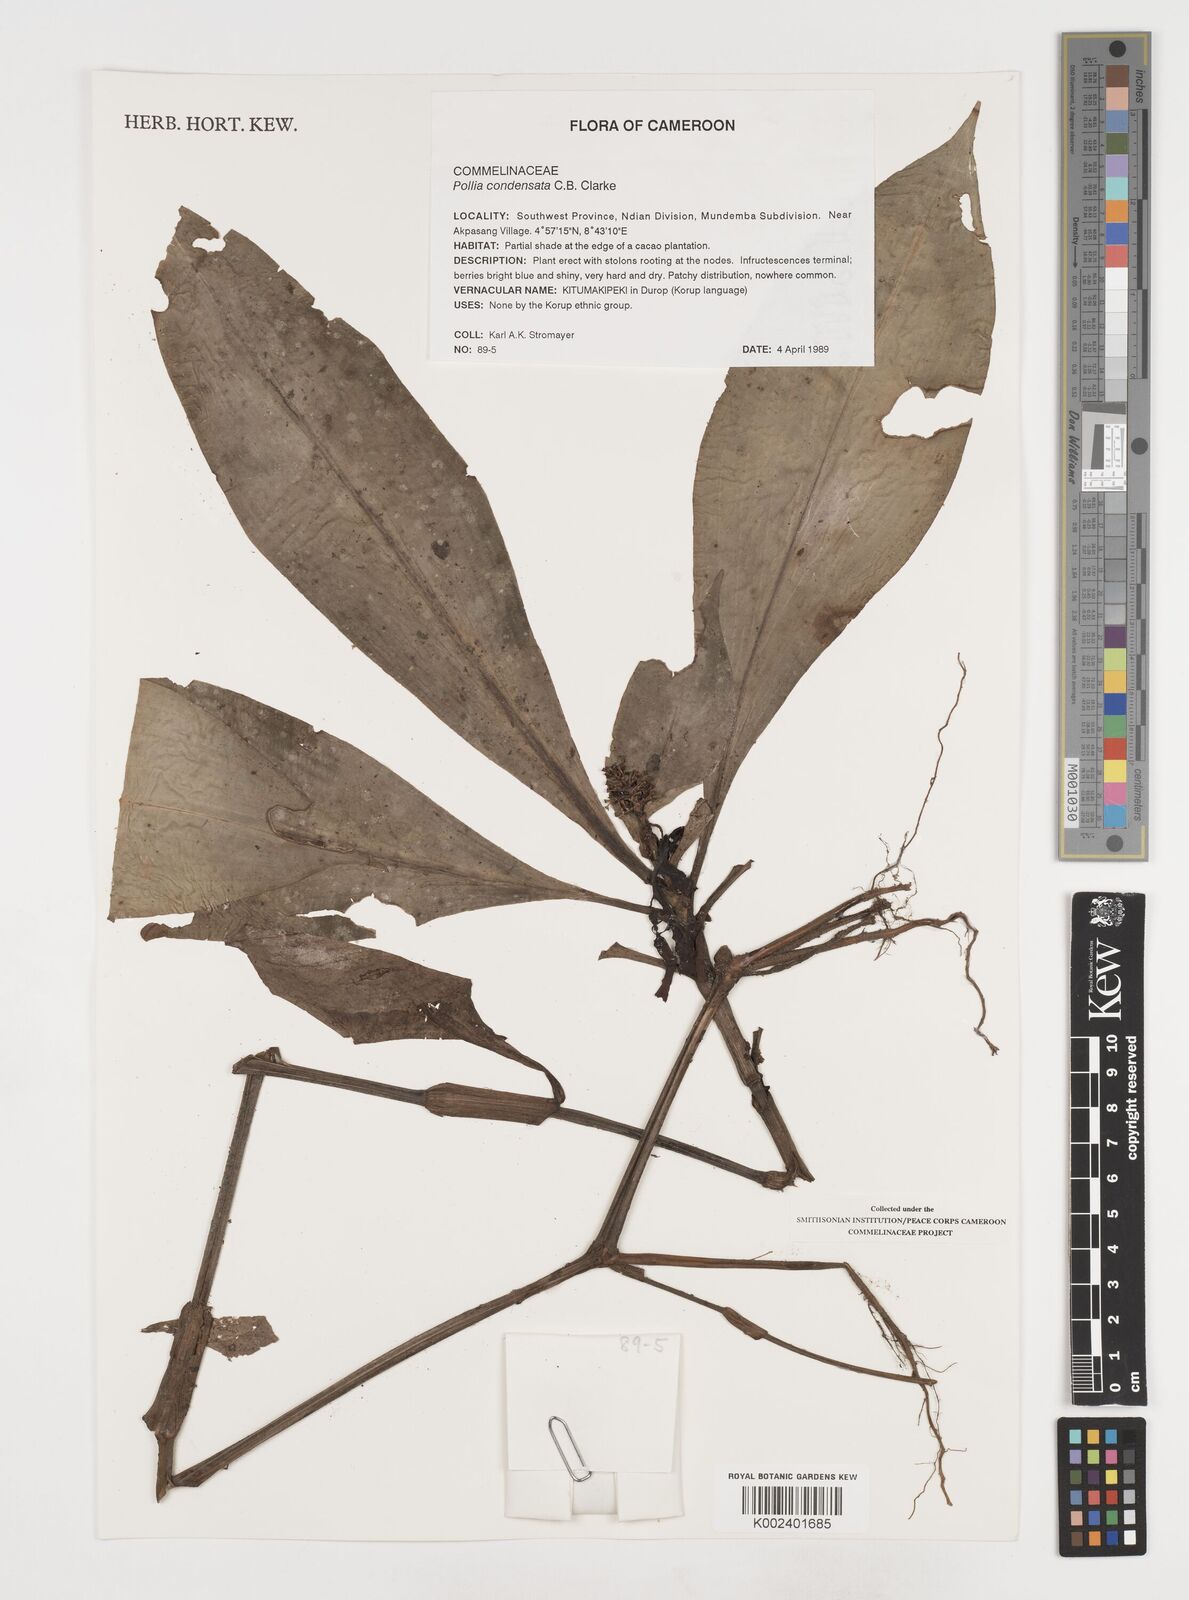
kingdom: Plantae
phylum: Tracheophyta
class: Liliopsida
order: Commelinales
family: Commelinaceae
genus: Pollia
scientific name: Pollia condensata
